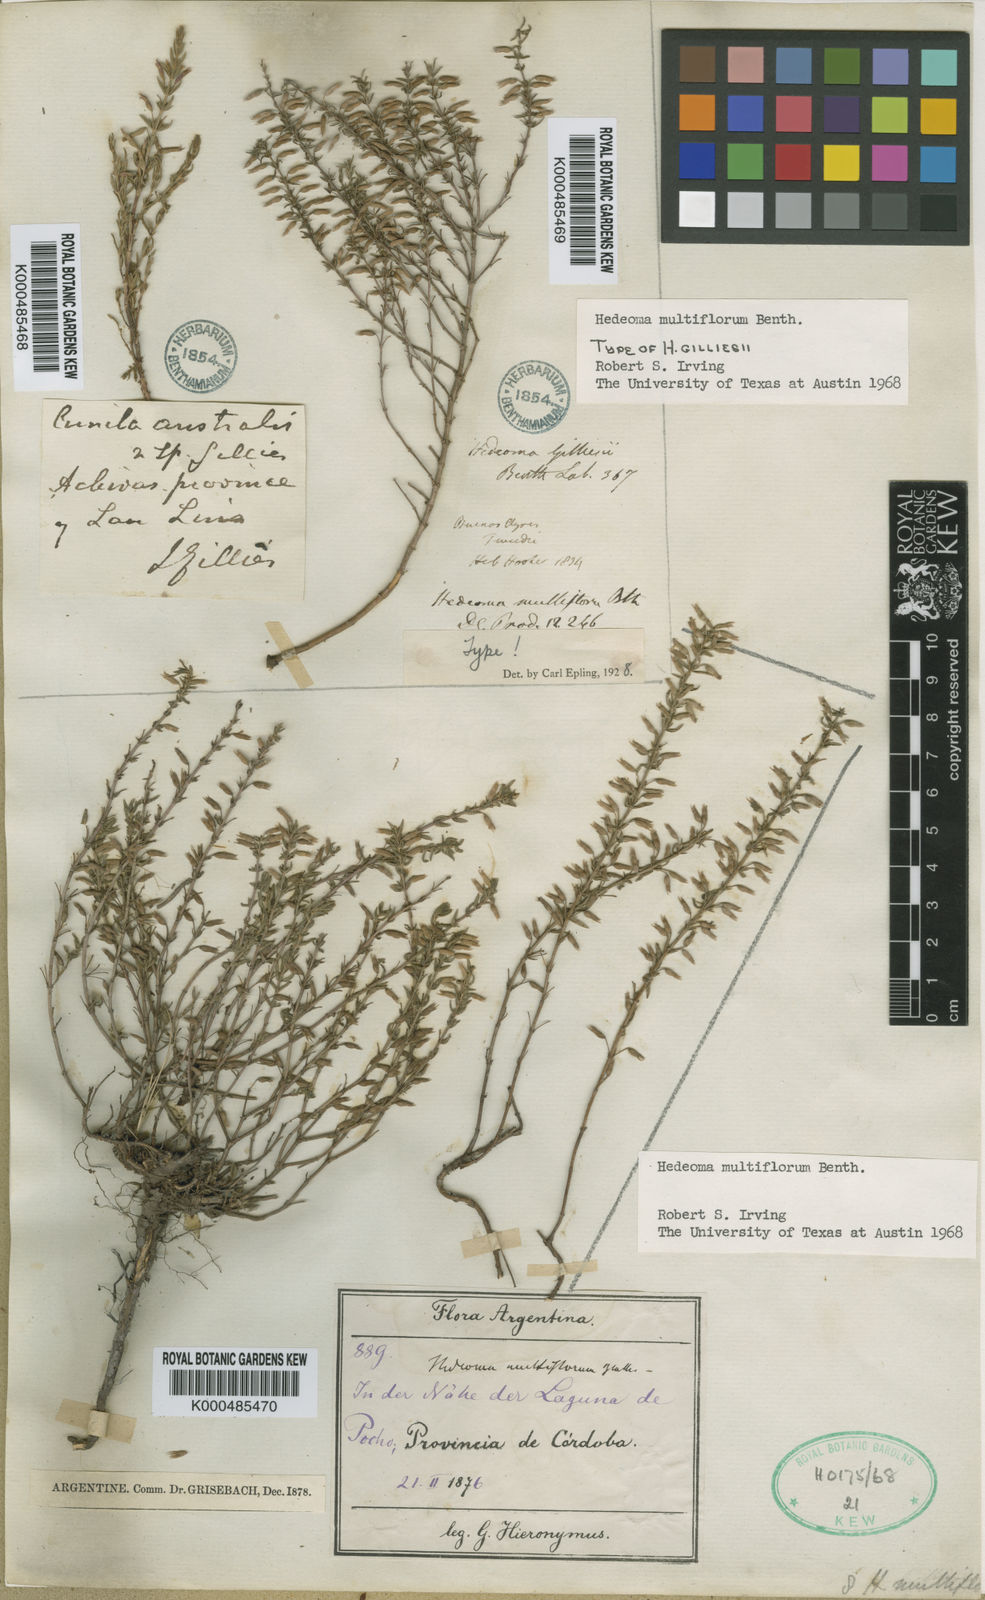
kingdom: Plantae
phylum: Tracheophyta
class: Magnoliopsida
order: Lamiales
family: Lamiaceae
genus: Hedeoma
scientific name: Hedeoma multiflora
